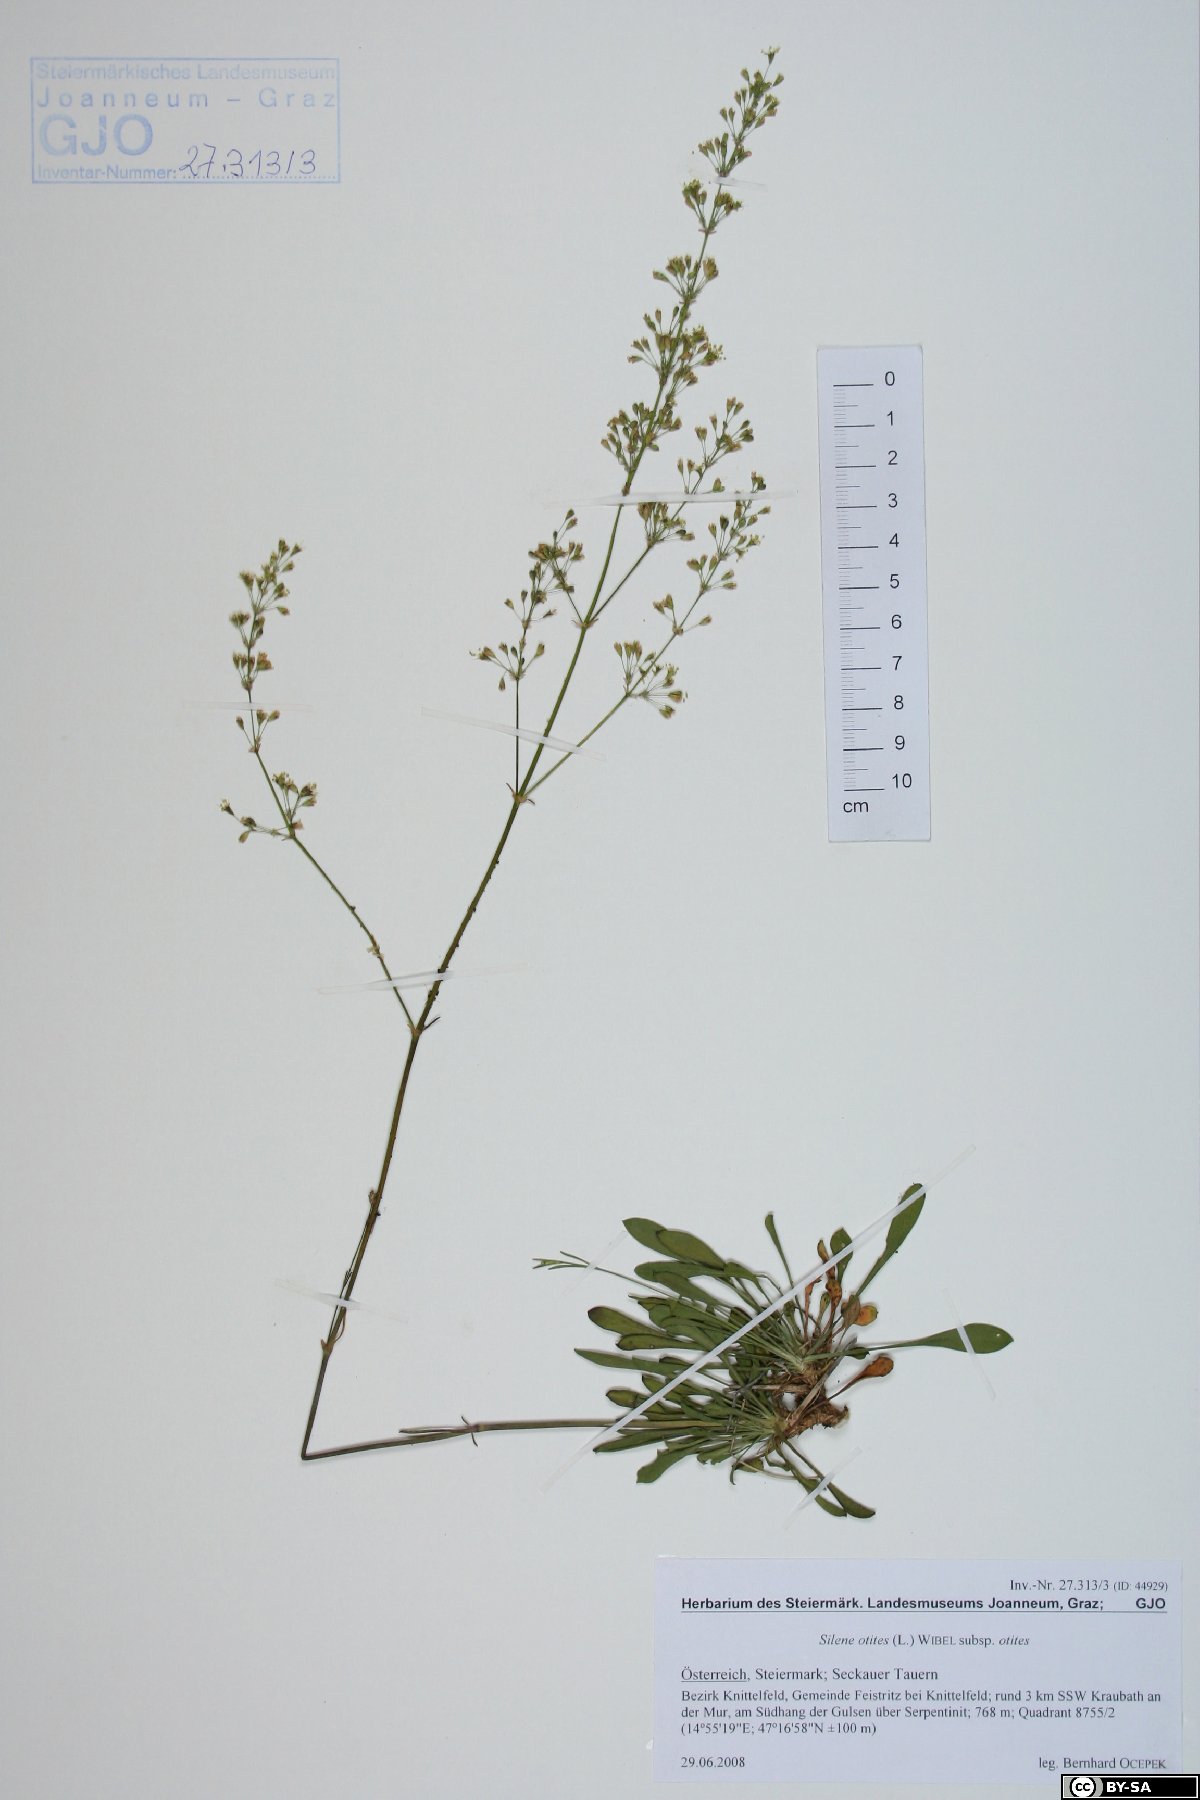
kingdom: Plantae
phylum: Tracheophyta
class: Magnoliopsida
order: Caryophyllales
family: Caryophyllaceae
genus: Silene
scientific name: Silene otites
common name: Spanish catchfly
